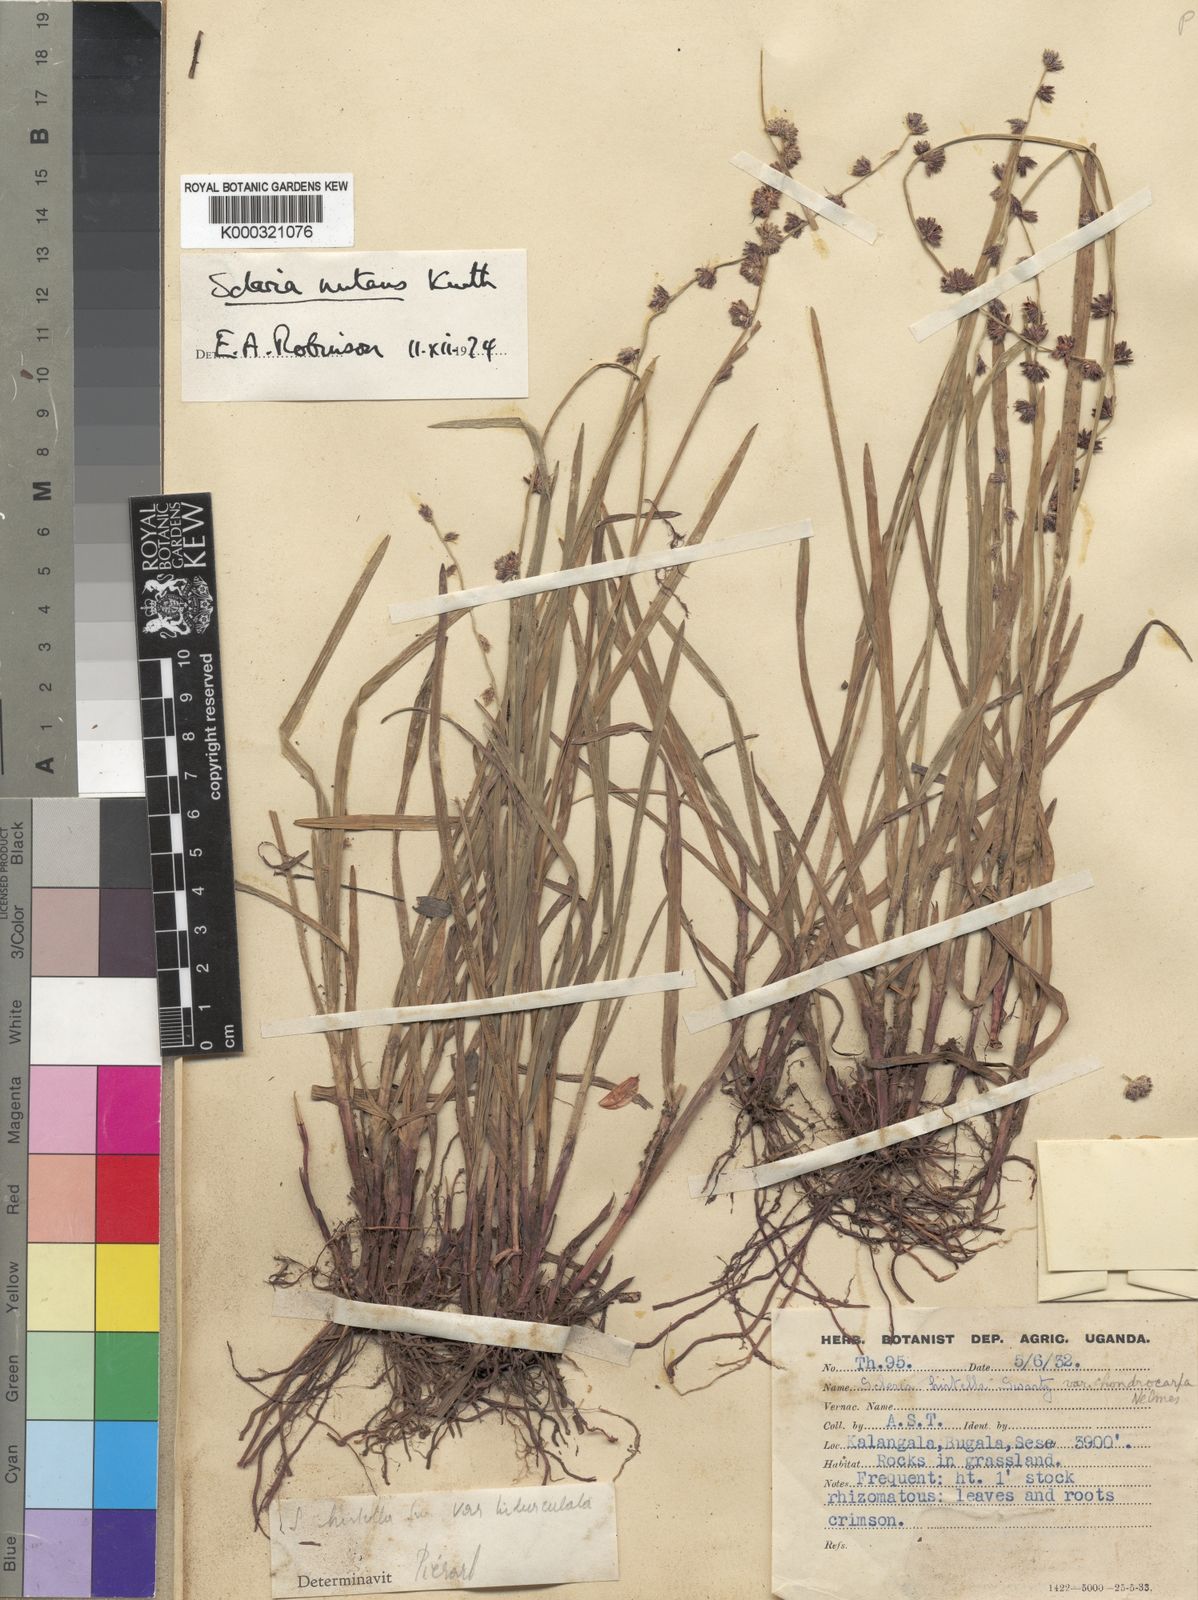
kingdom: Plantae
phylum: Tracheophyta
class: Liliopsida
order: Poales
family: Cyperaceae
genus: Scleria
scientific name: Scleria
